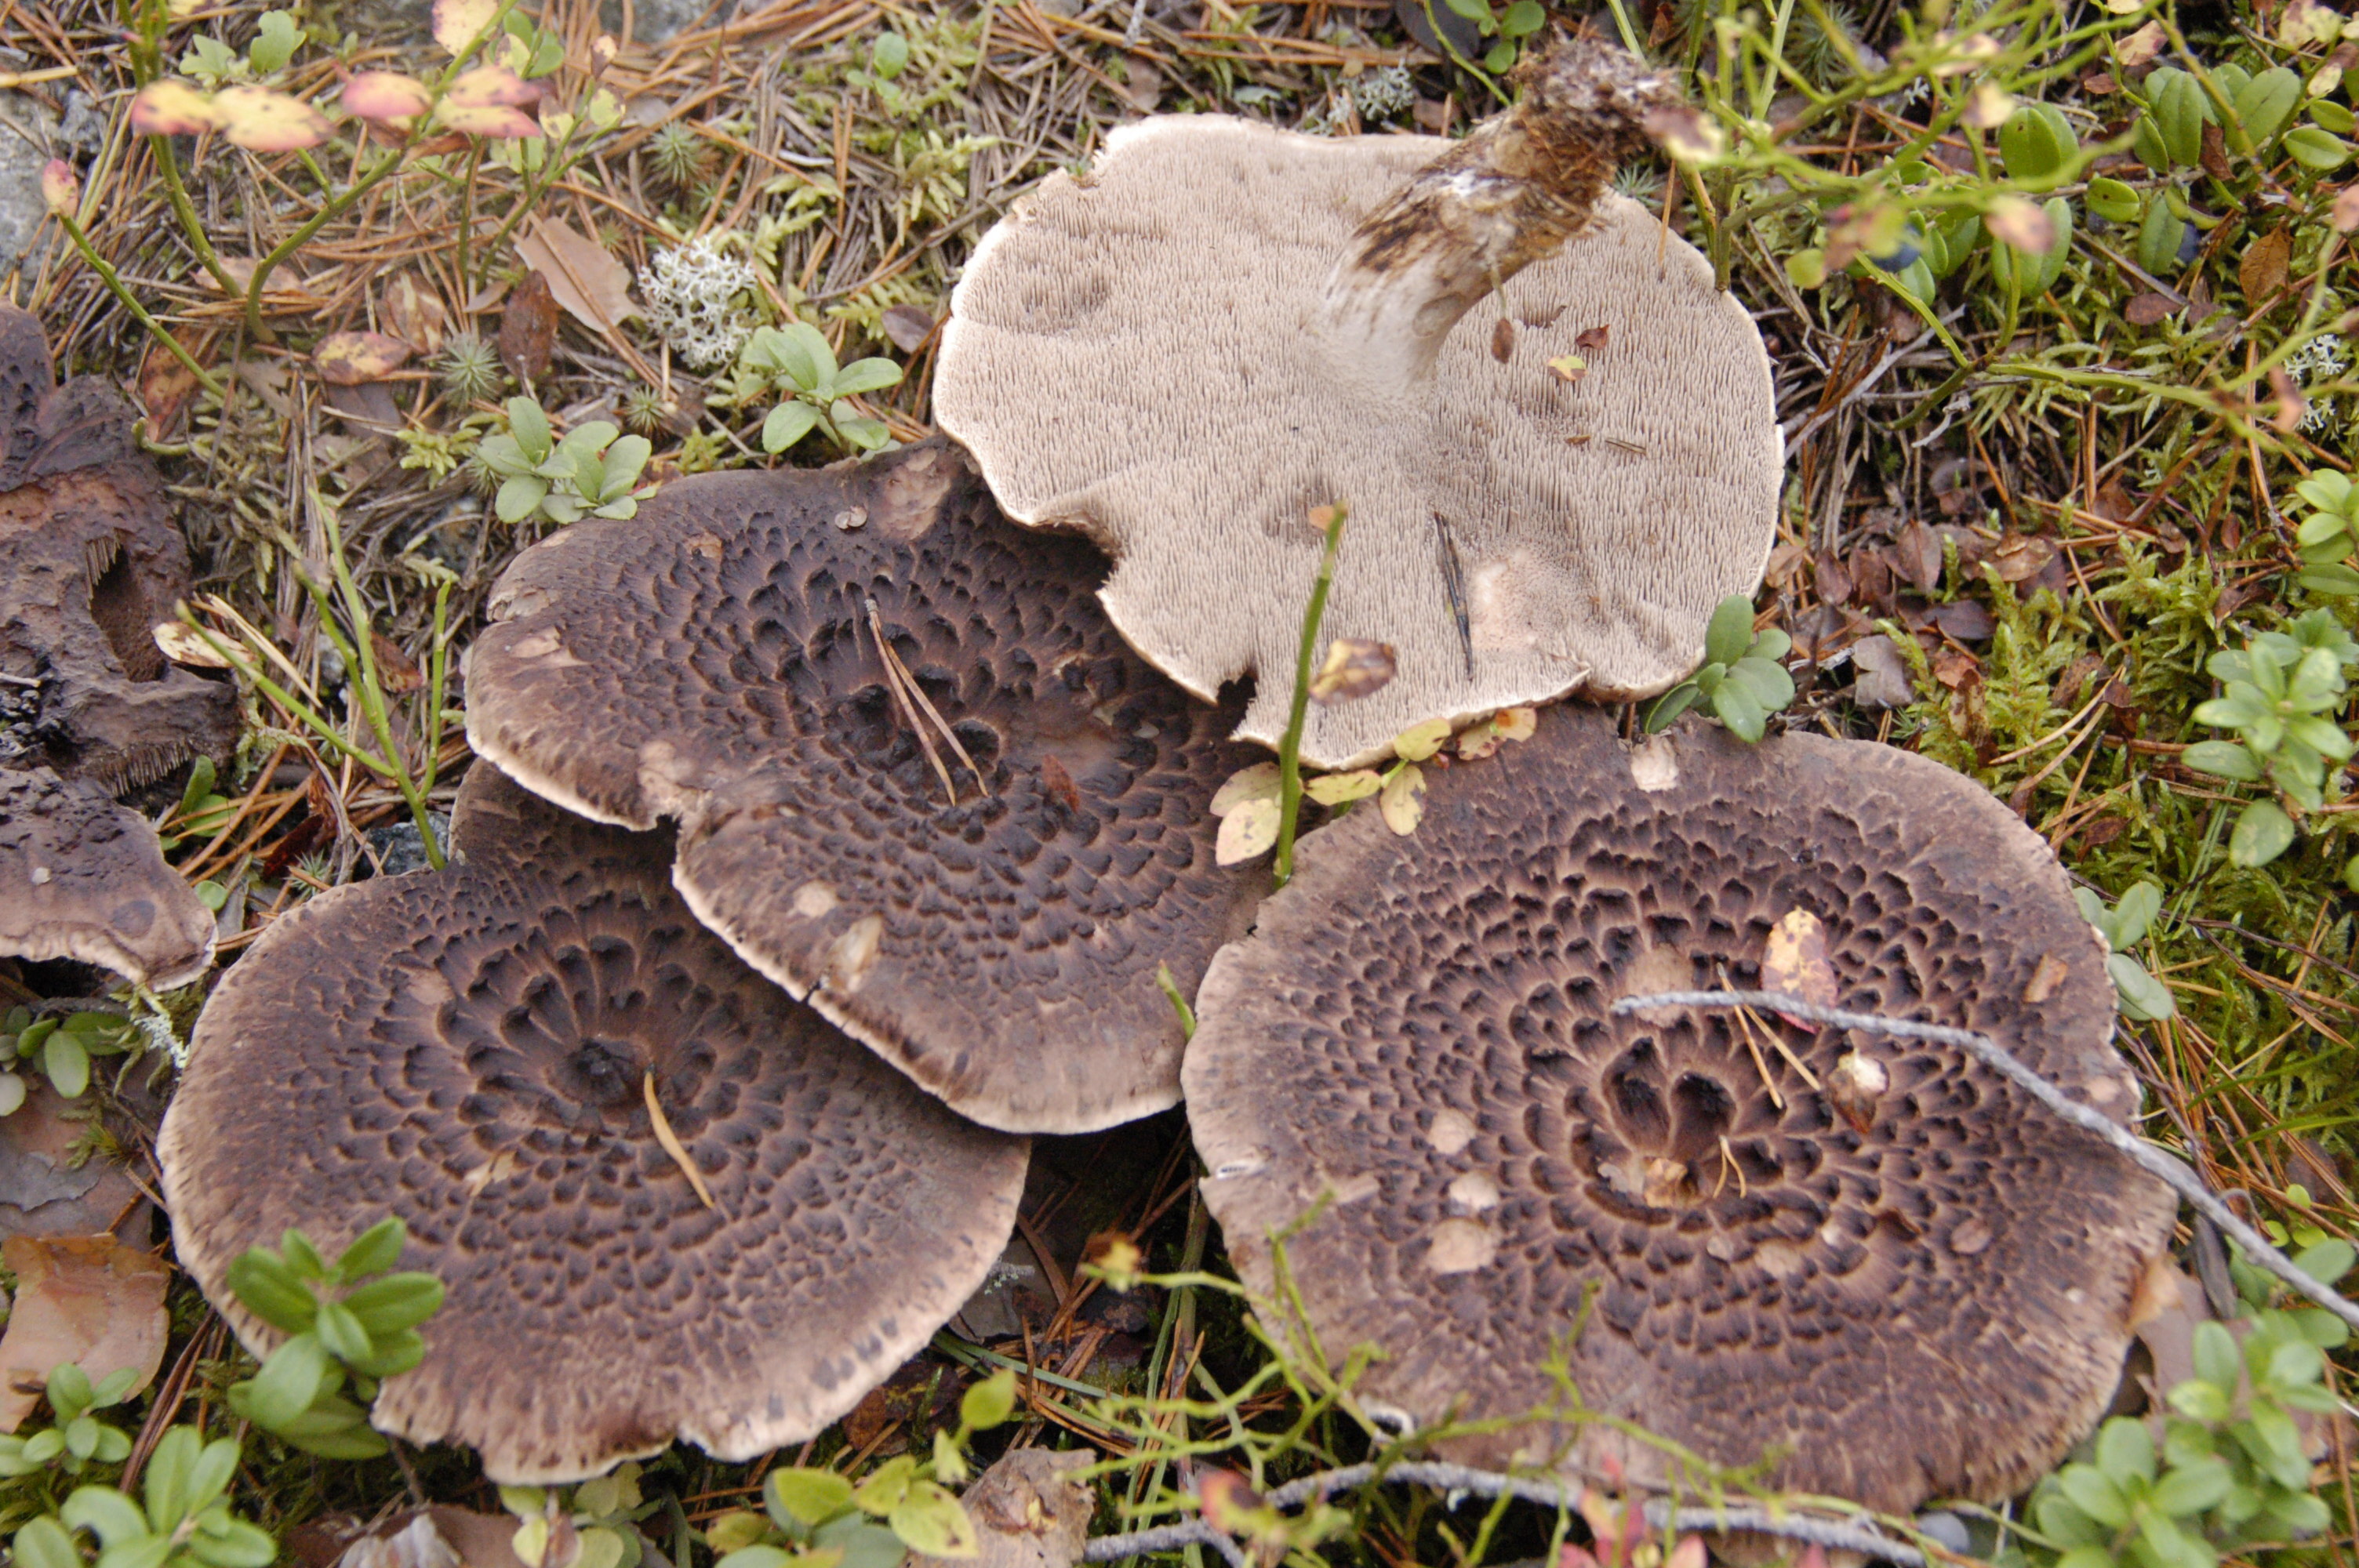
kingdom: Fungi
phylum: Basidiomycota
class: Agaricomycetes
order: Thelephorales
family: Bankeraceae
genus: Sarcodon
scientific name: Sarcodon squamosus
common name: Scaly tooth
